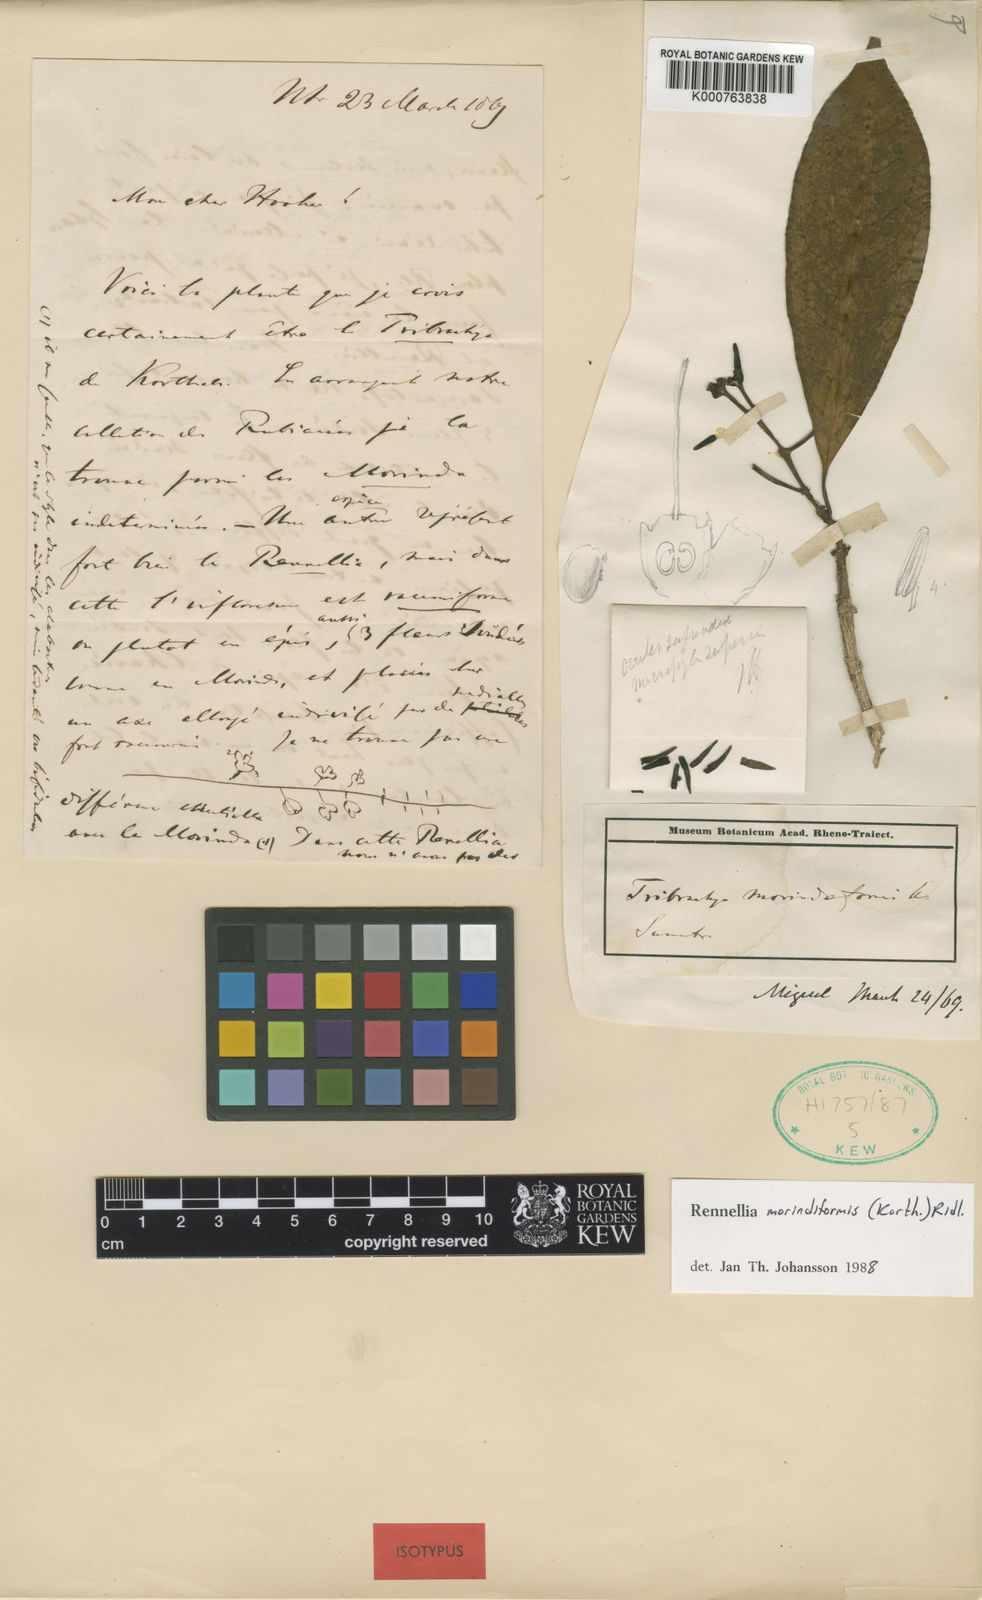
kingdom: Plantae
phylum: Tracheophyta
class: Magnoliopsida
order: Gentianales
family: Rubiaceae
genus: Rennellia
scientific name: Rennellia morindiformis
